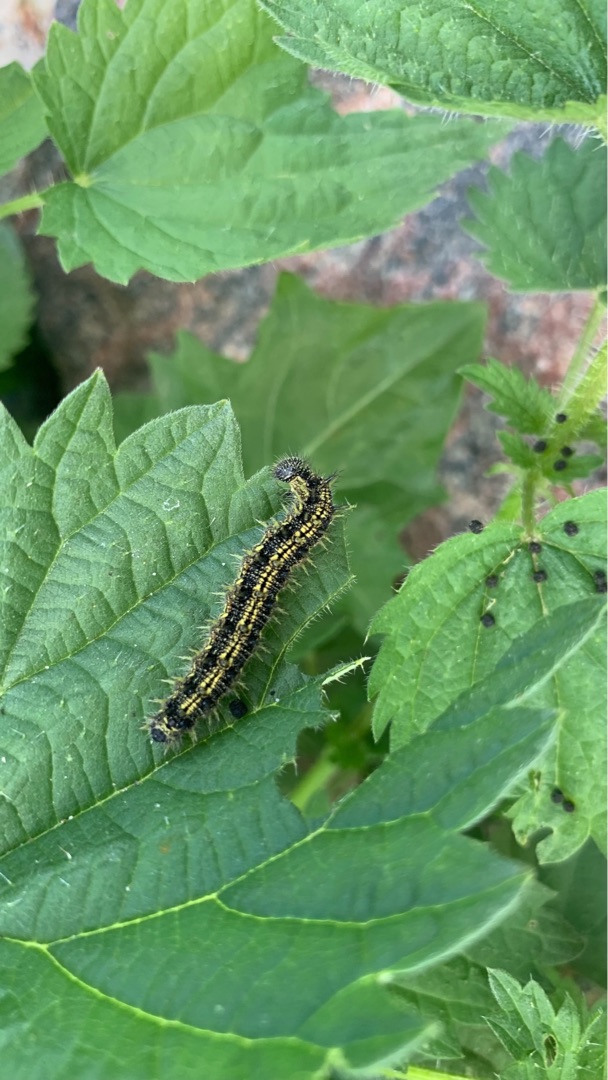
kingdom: Animalia
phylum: Arthropoda
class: Insecta
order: Lepidoptera
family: Nymphalidae
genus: Aglais
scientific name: Aglais urticae
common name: Nældens takvinge
